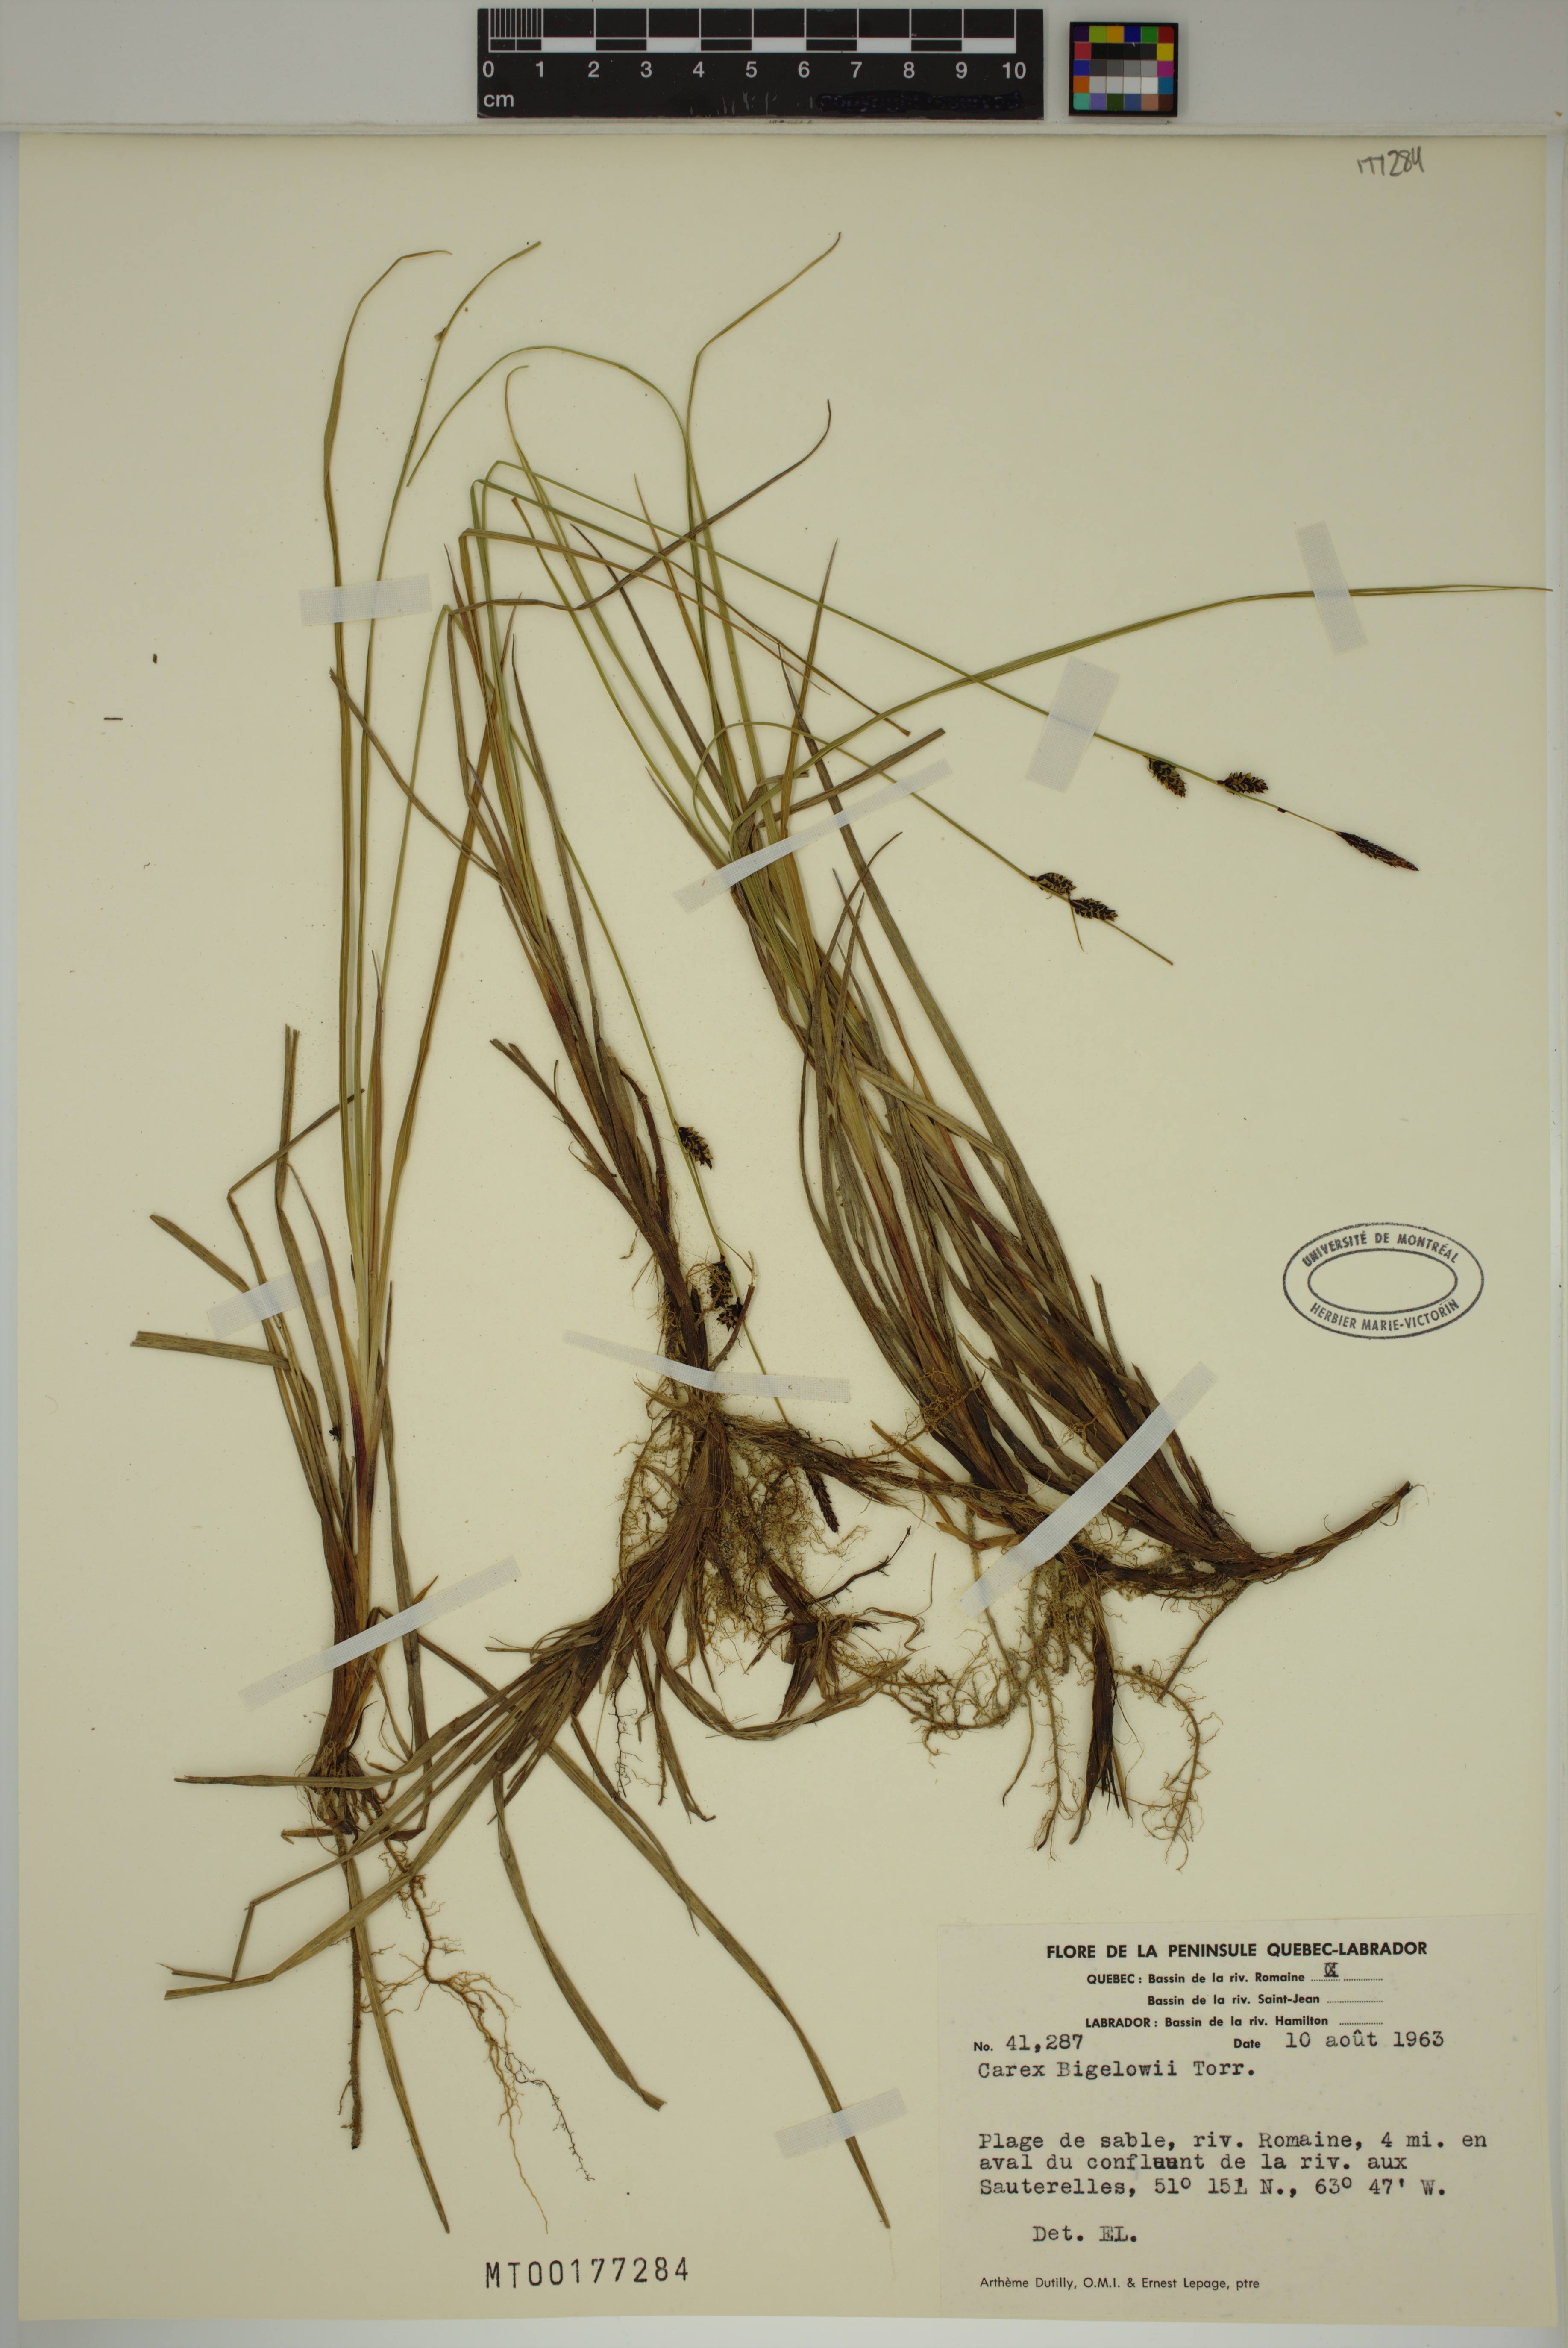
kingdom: Plantae
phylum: Tracheophyta
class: Liliopsida
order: Poales
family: Cyperaceae
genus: Carex
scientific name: Carex bigelowii
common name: Stiff sedge
